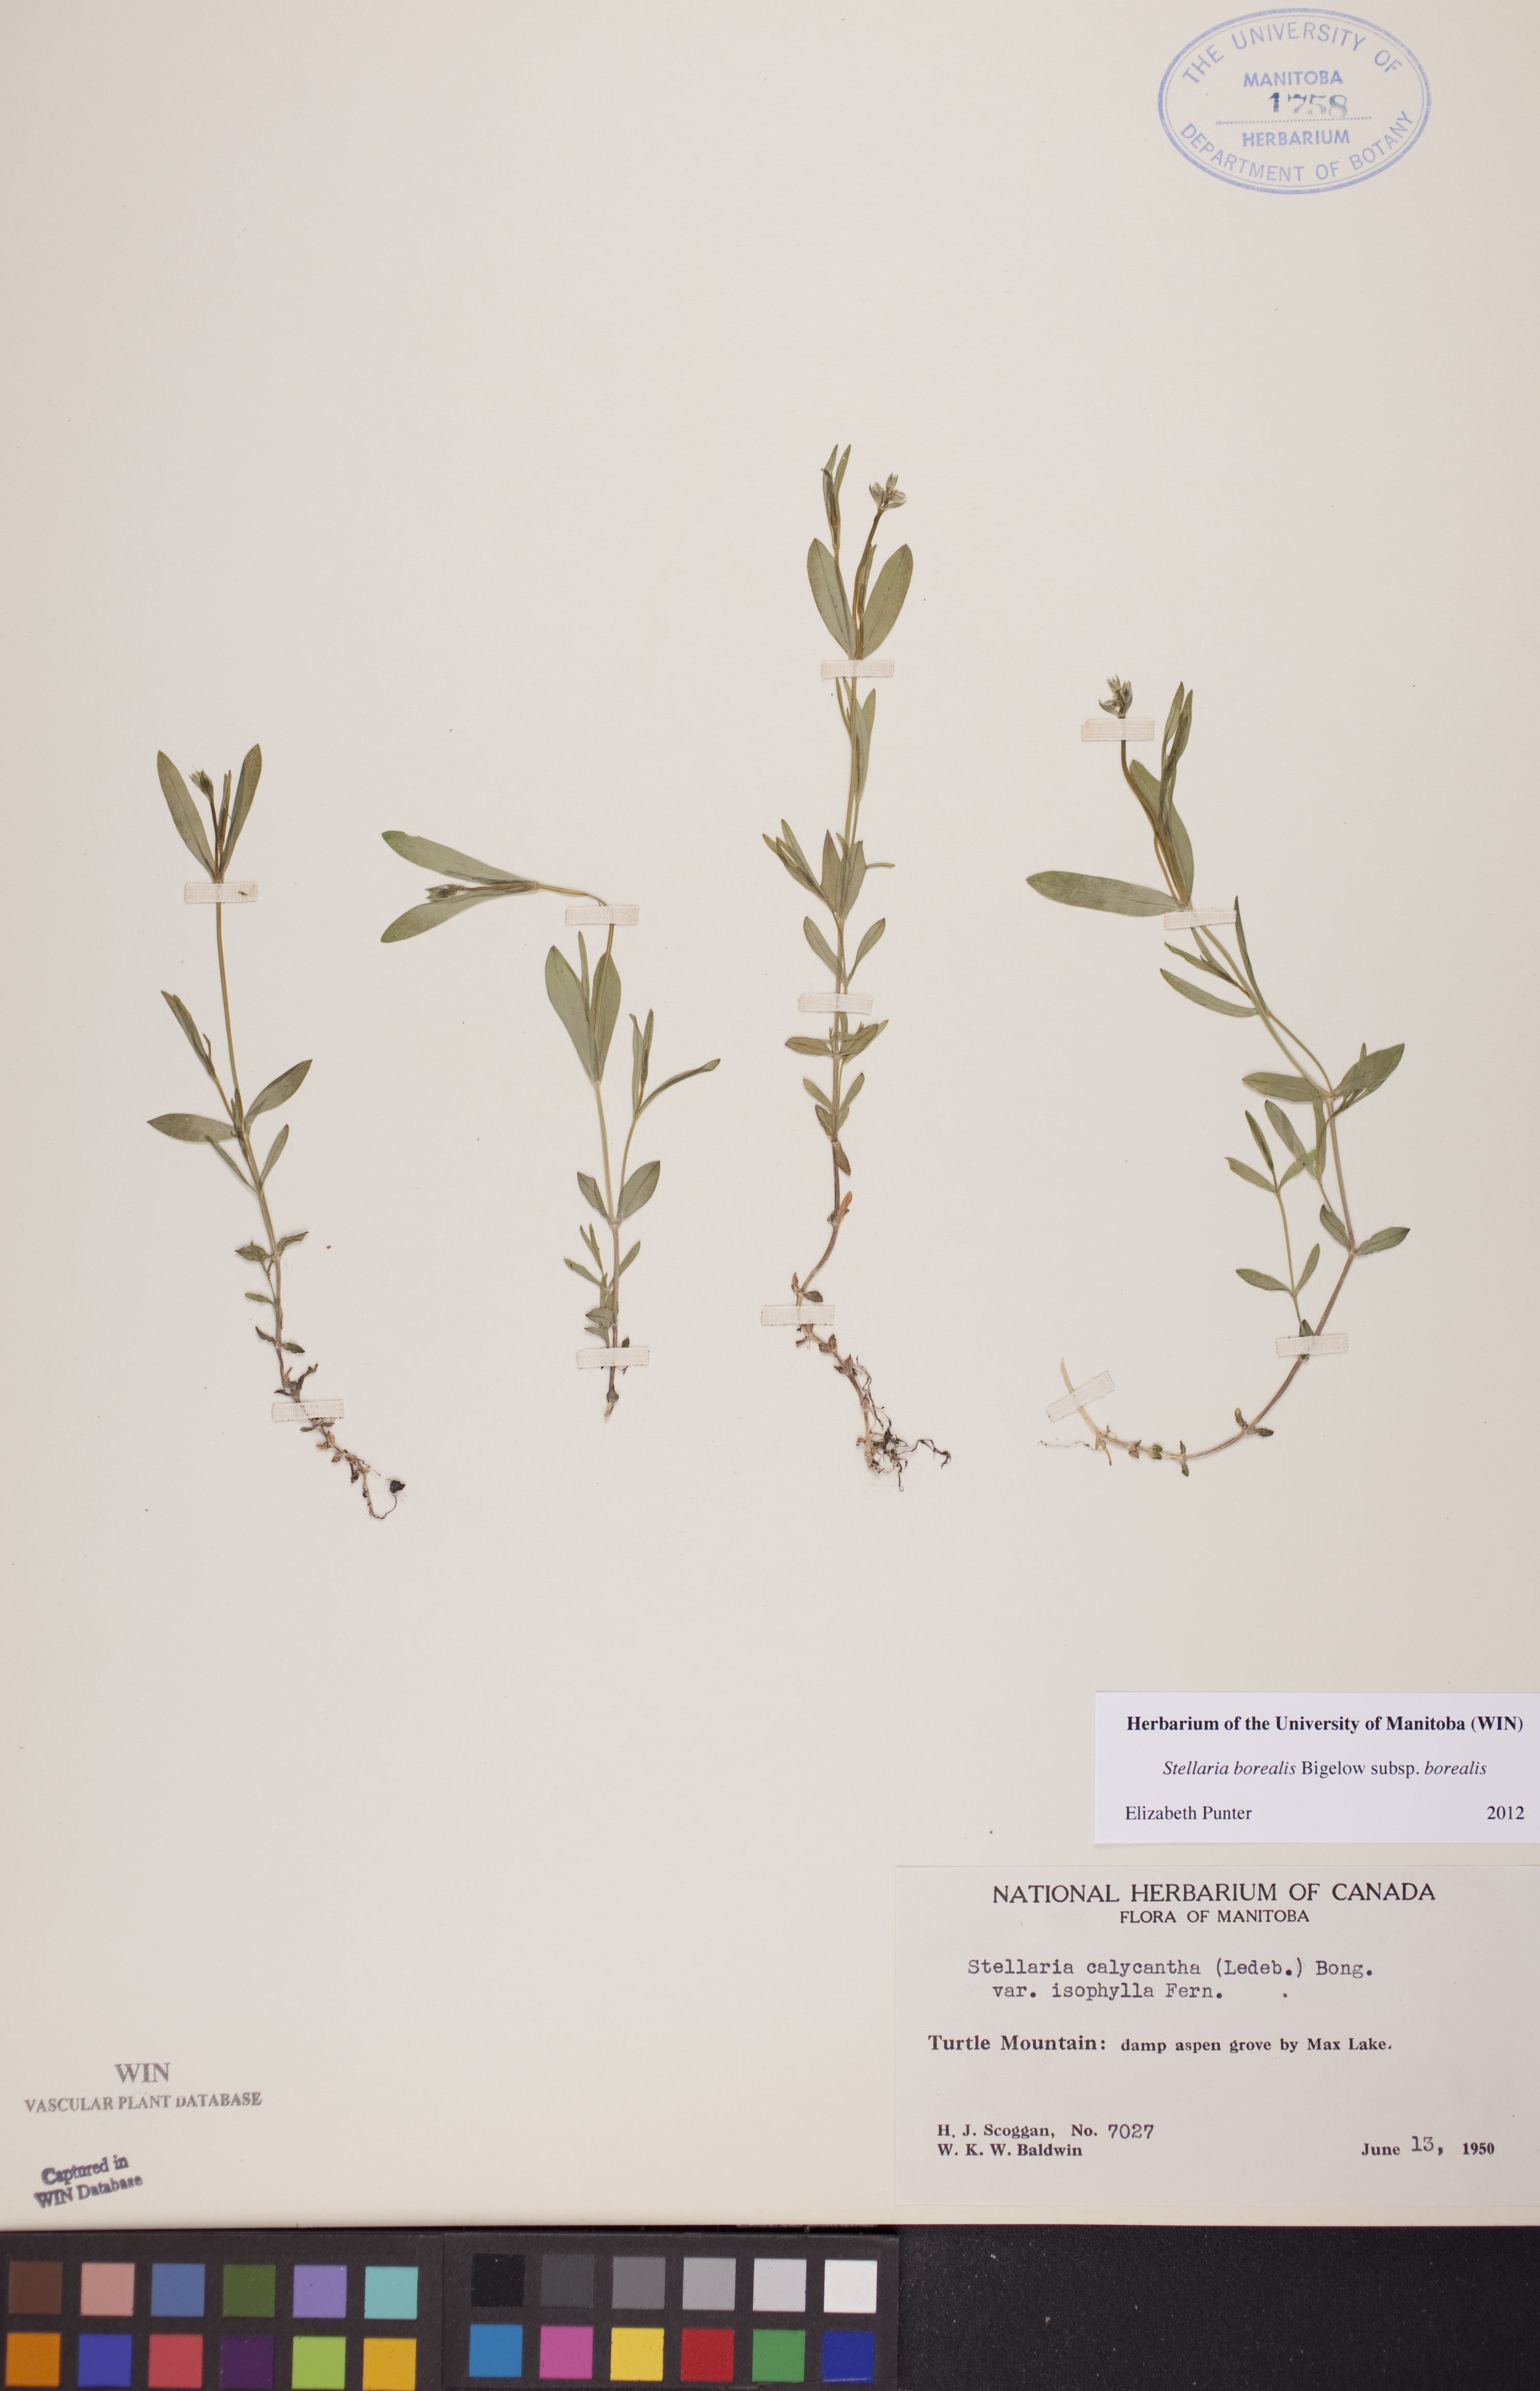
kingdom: Plantae
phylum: Tracheophyta
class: Magnoliopsida
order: Caryophyllales
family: Caryophyllaceae
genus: Stellaria
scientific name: Stellaria borealis
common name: Boreal starwort
